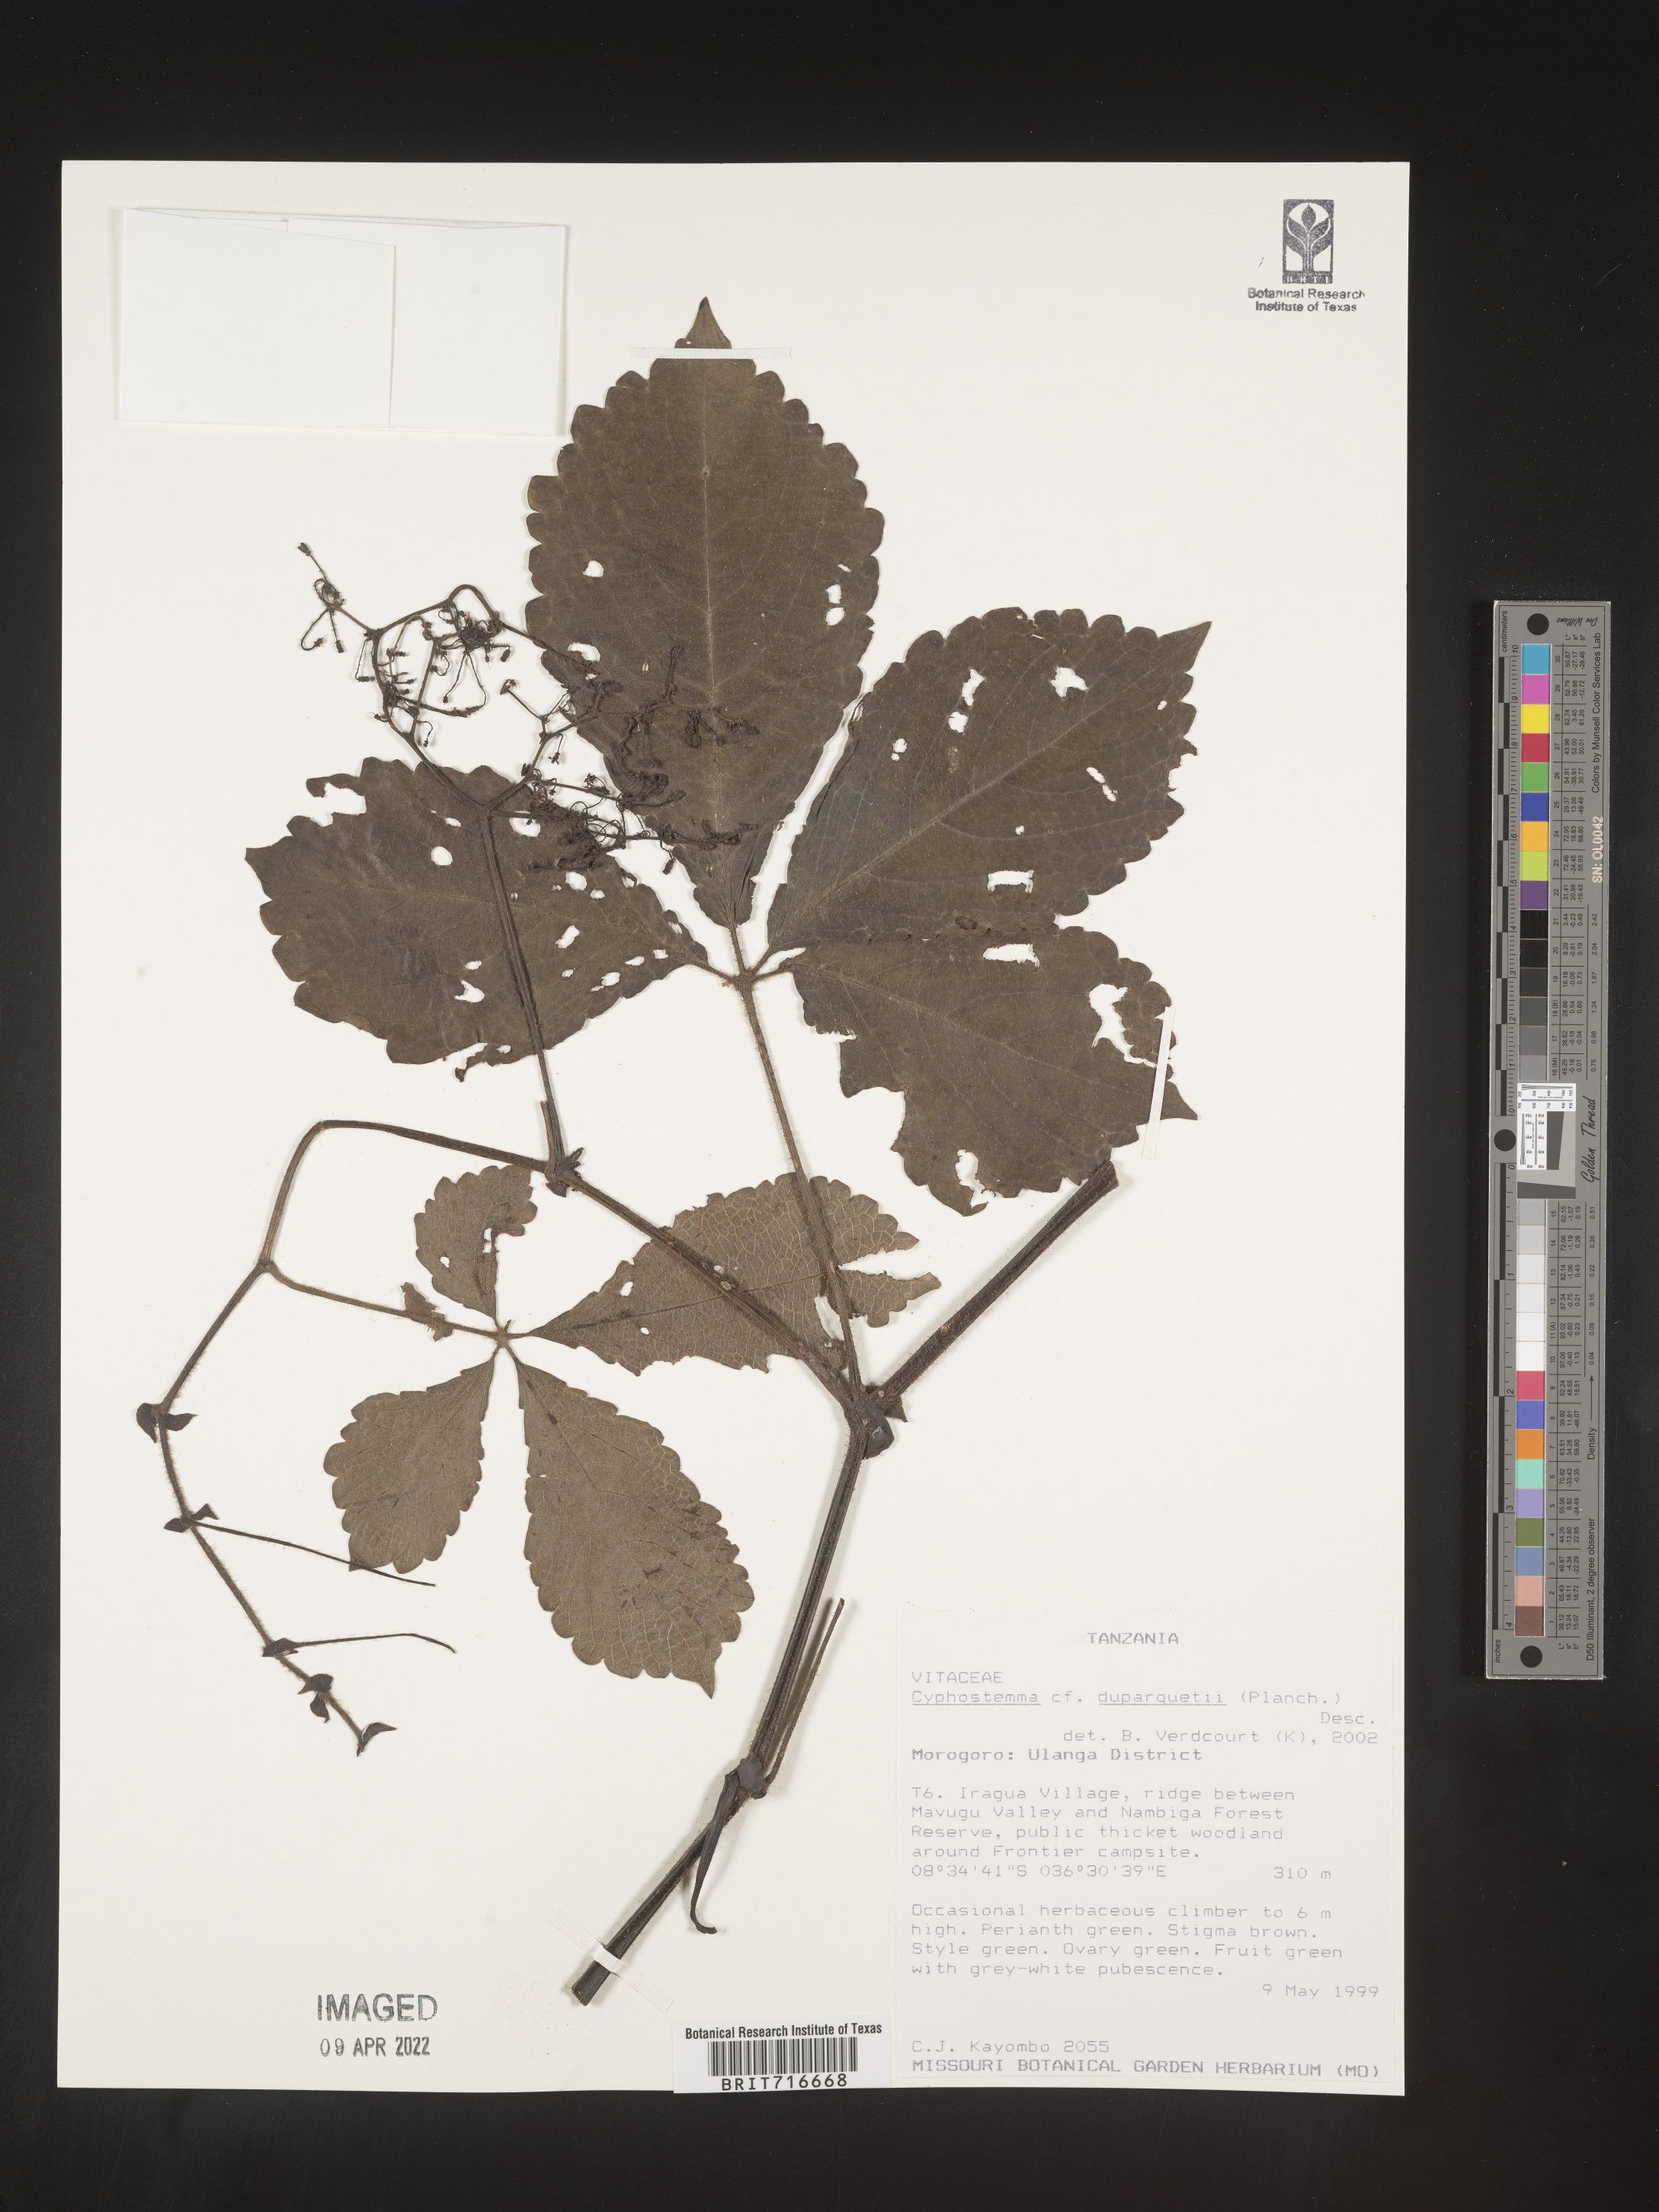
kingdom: Plantae
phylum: Tracheophyta
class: Magnoliopsida
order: Vitales
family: Vitaceae
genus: Cyphostemma
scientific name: Cyphostemma
